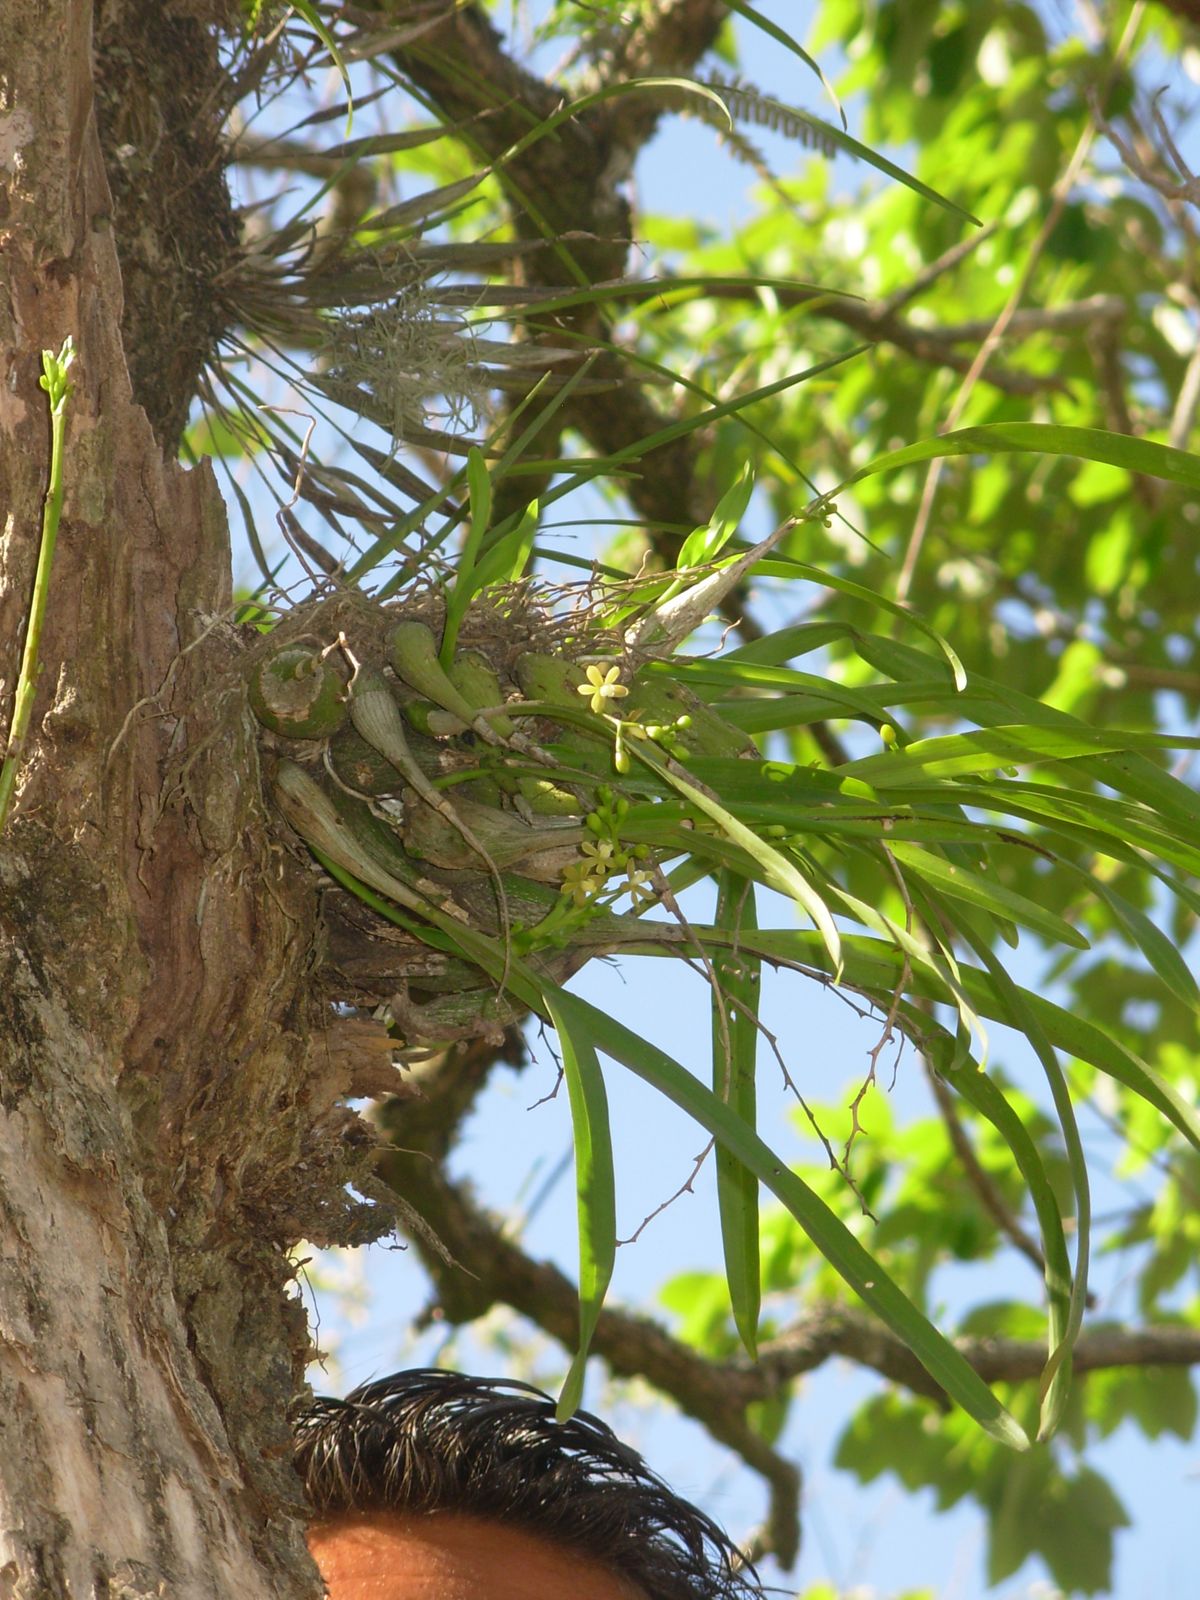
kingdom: Plantae
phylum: Tracheophyta
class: Liliopsida
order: Asparagales
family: Orchidaceae
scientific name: Orchidaceae
